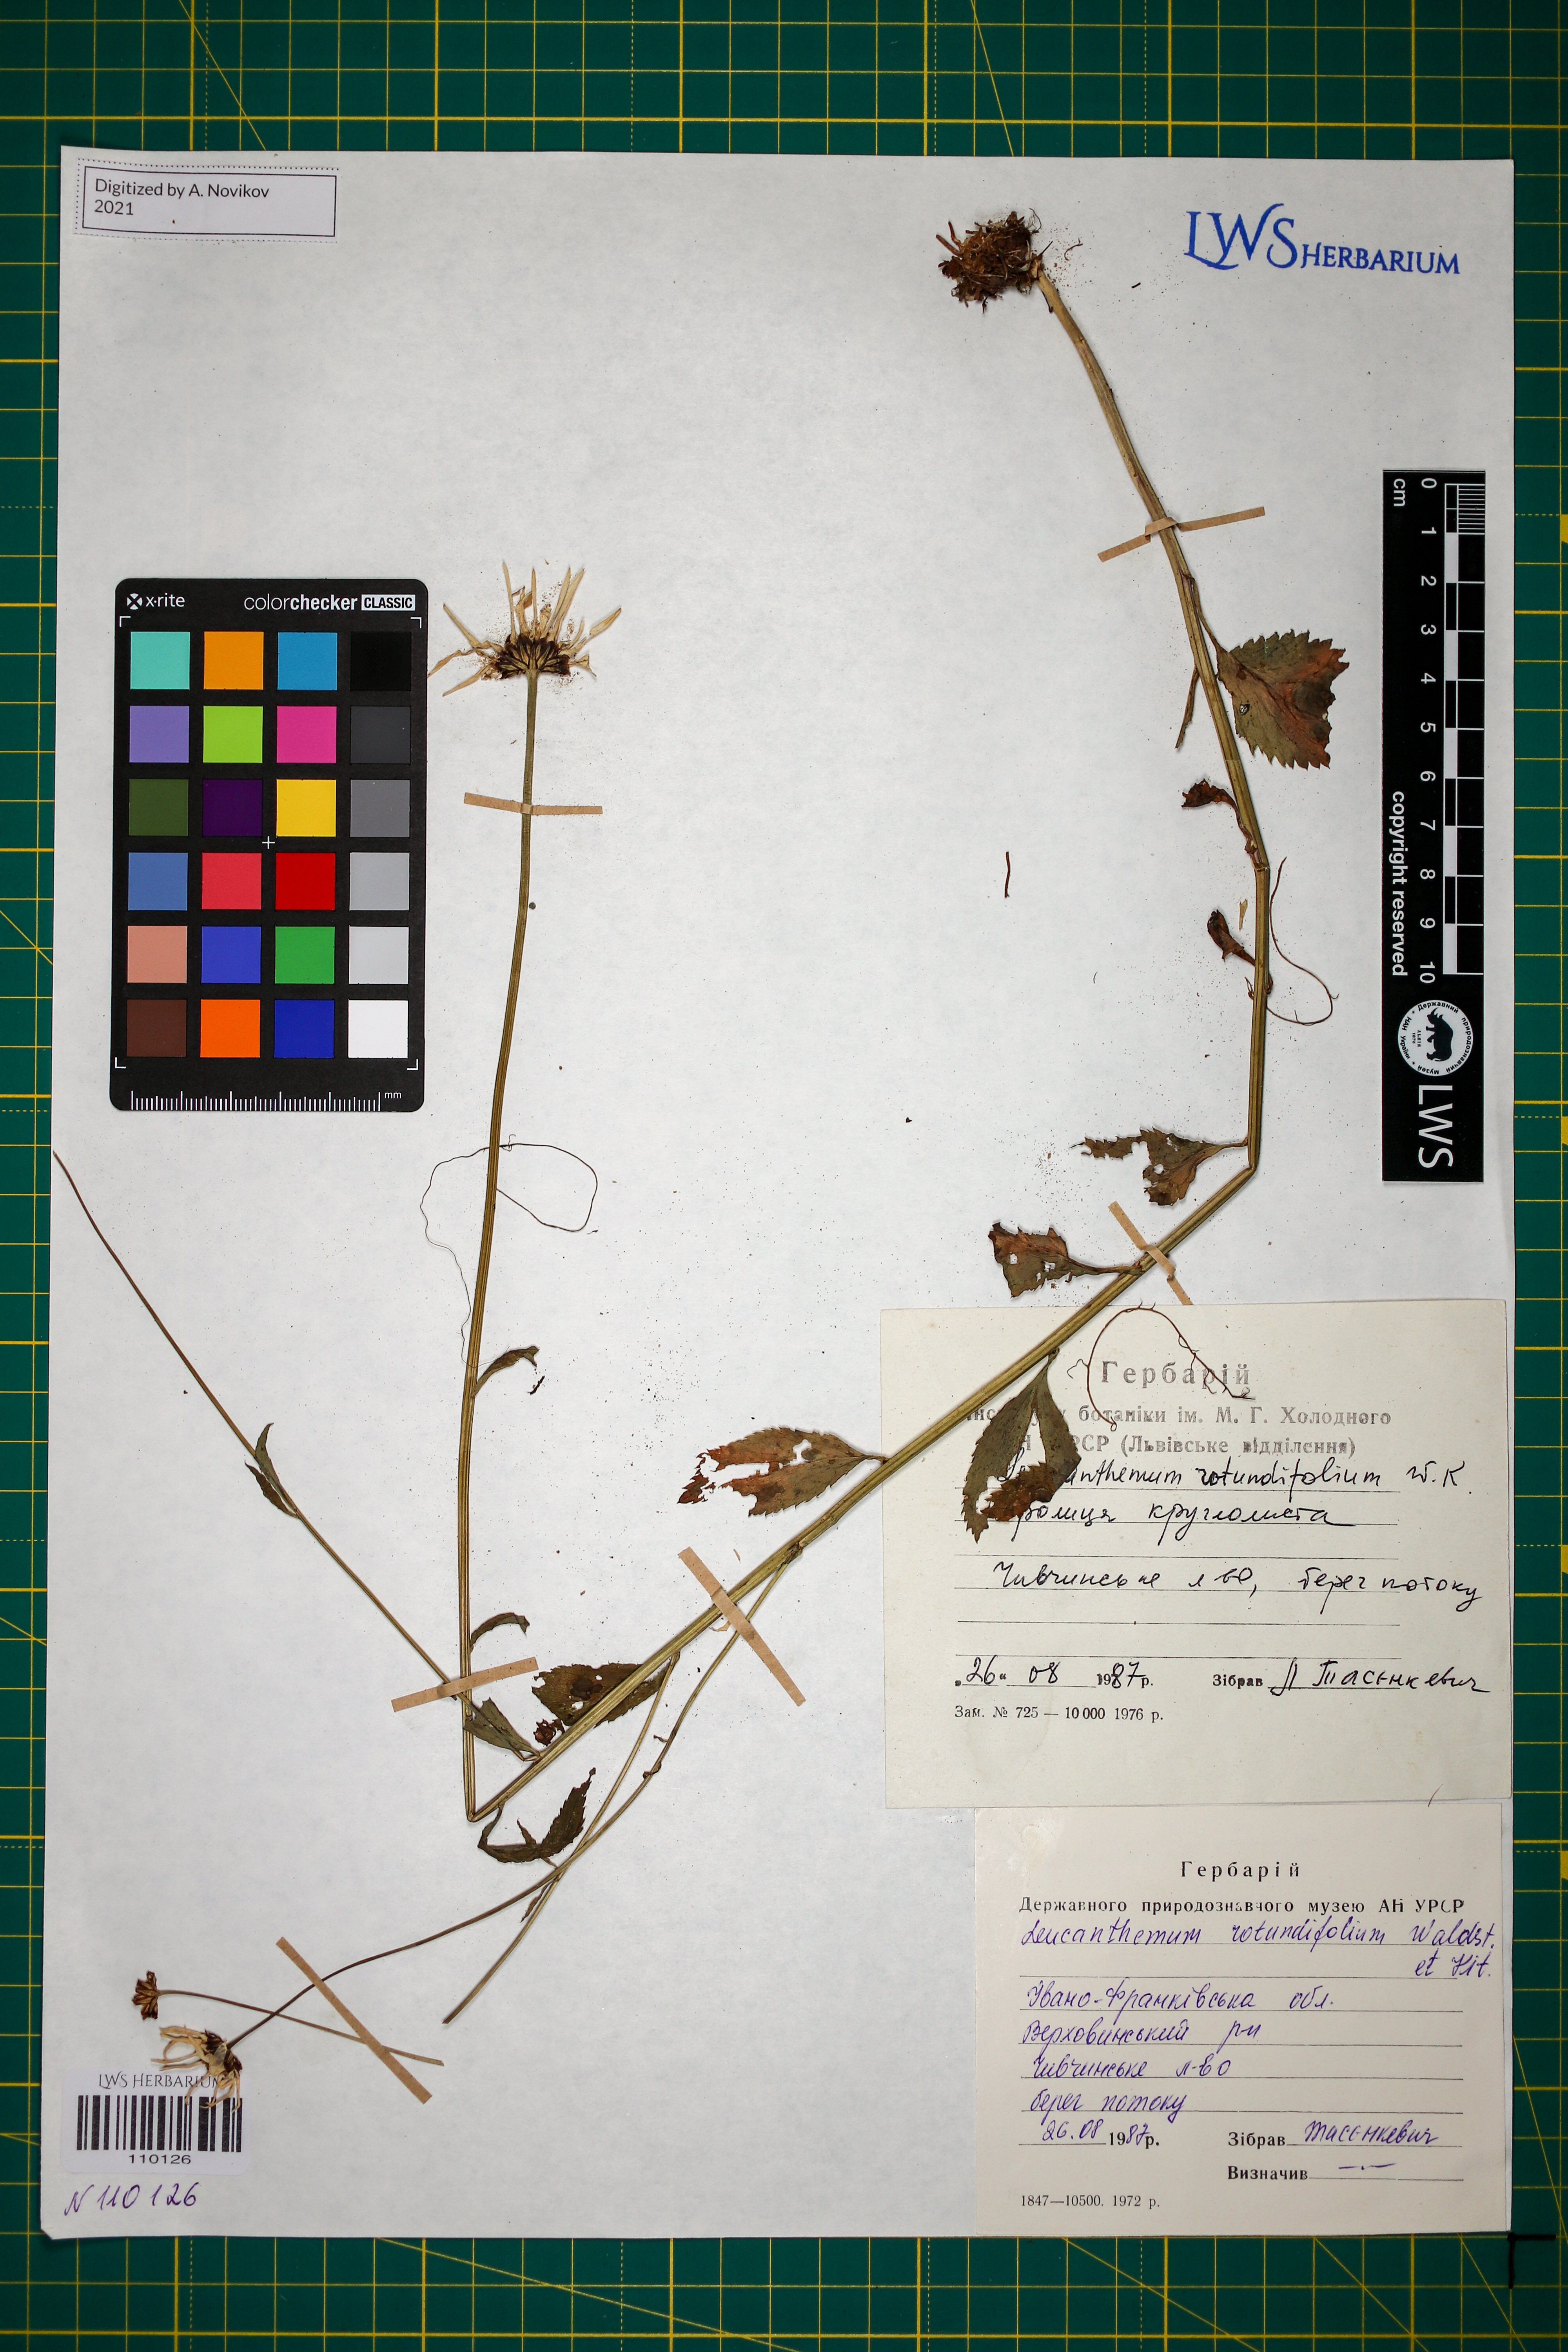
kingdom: Plantae
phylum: Tracheophyta
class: Magnoliopsida
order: Asterales
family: Asteraceae
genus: Leucanthemum
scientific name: Leucanthemum rotundifolium
